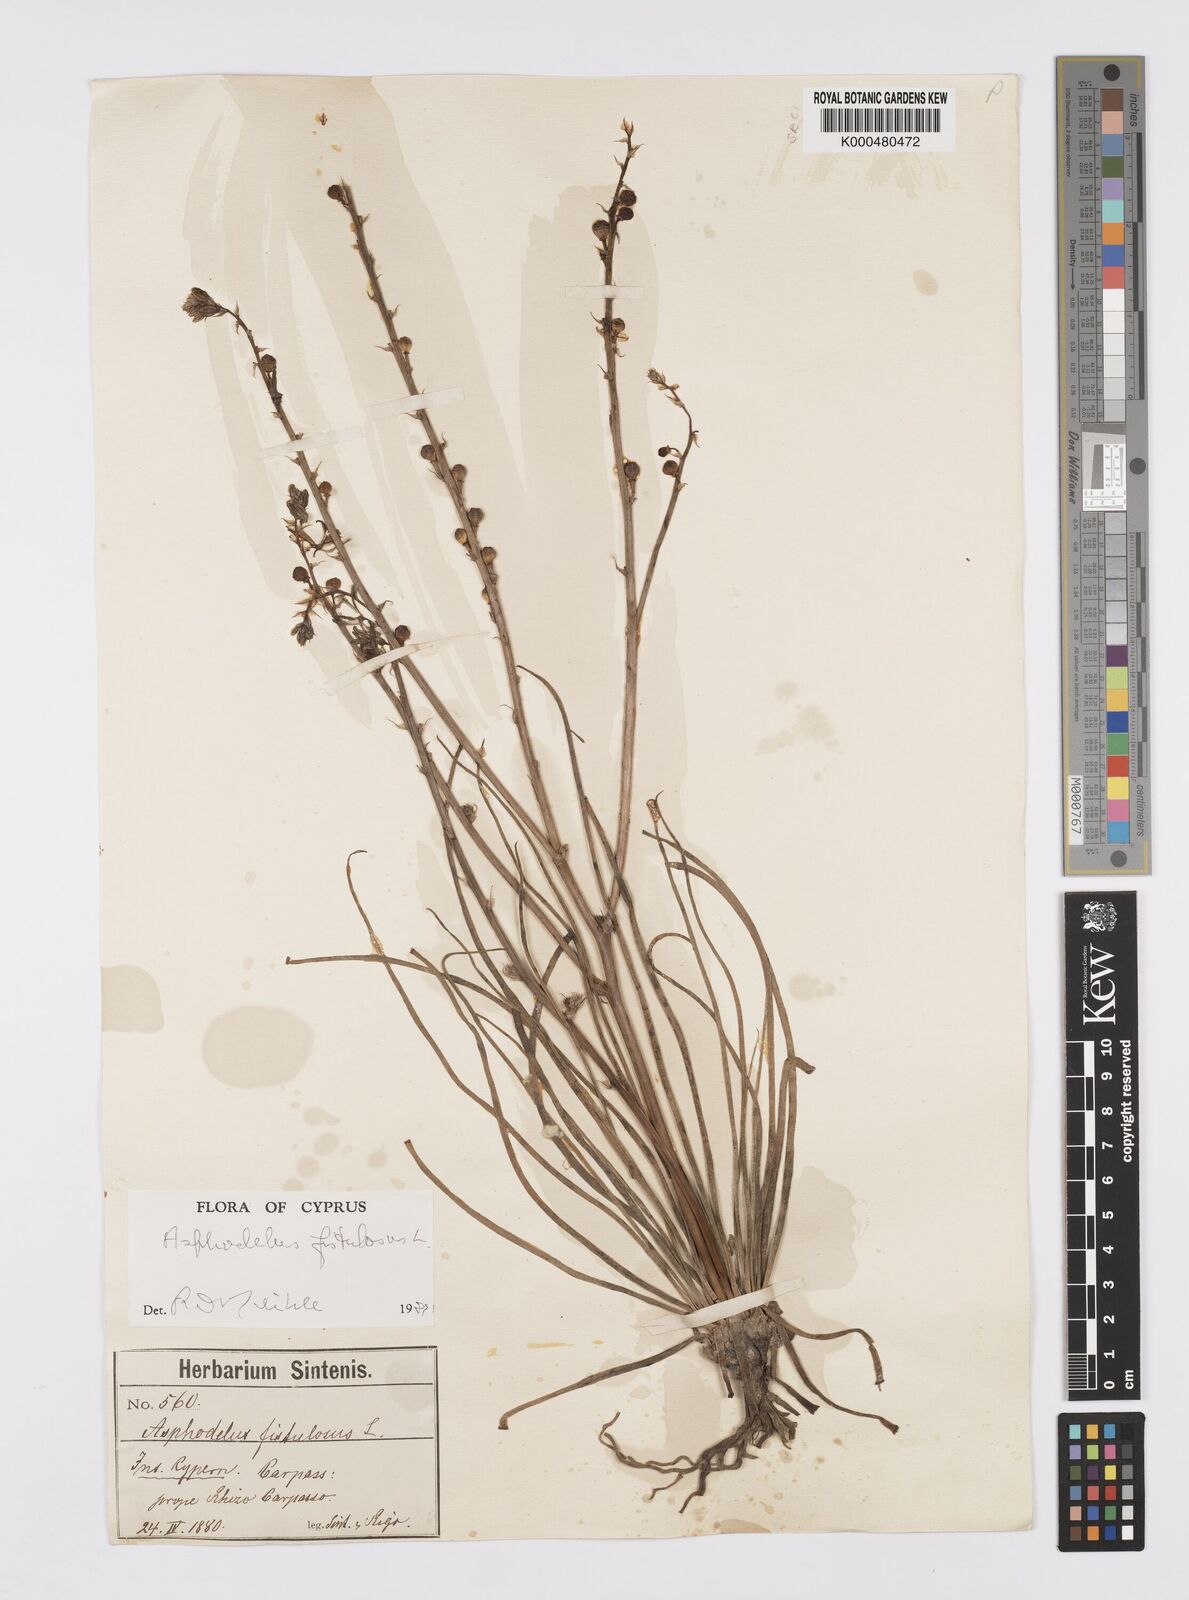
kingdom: Plantae
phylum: Tracheophyta
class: Liliopsida
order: Asparagales
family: Asphodelaceae
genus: Asphodelus
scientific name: Asphodelus fistulosus
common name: Onionweed
